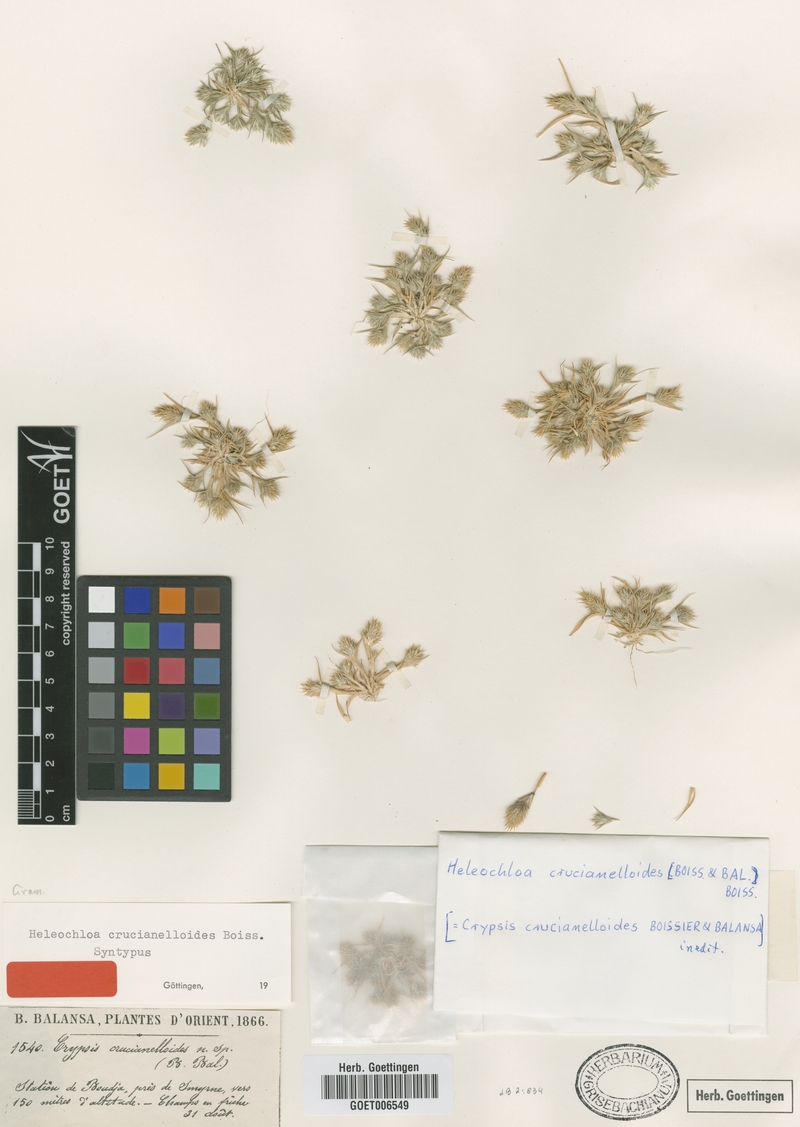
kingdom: Plantae
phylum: Tracheophyta
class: Liliopsida
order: Poales
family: Poaceae
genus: Sporobolus
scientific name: Sporobolus borszczowii
